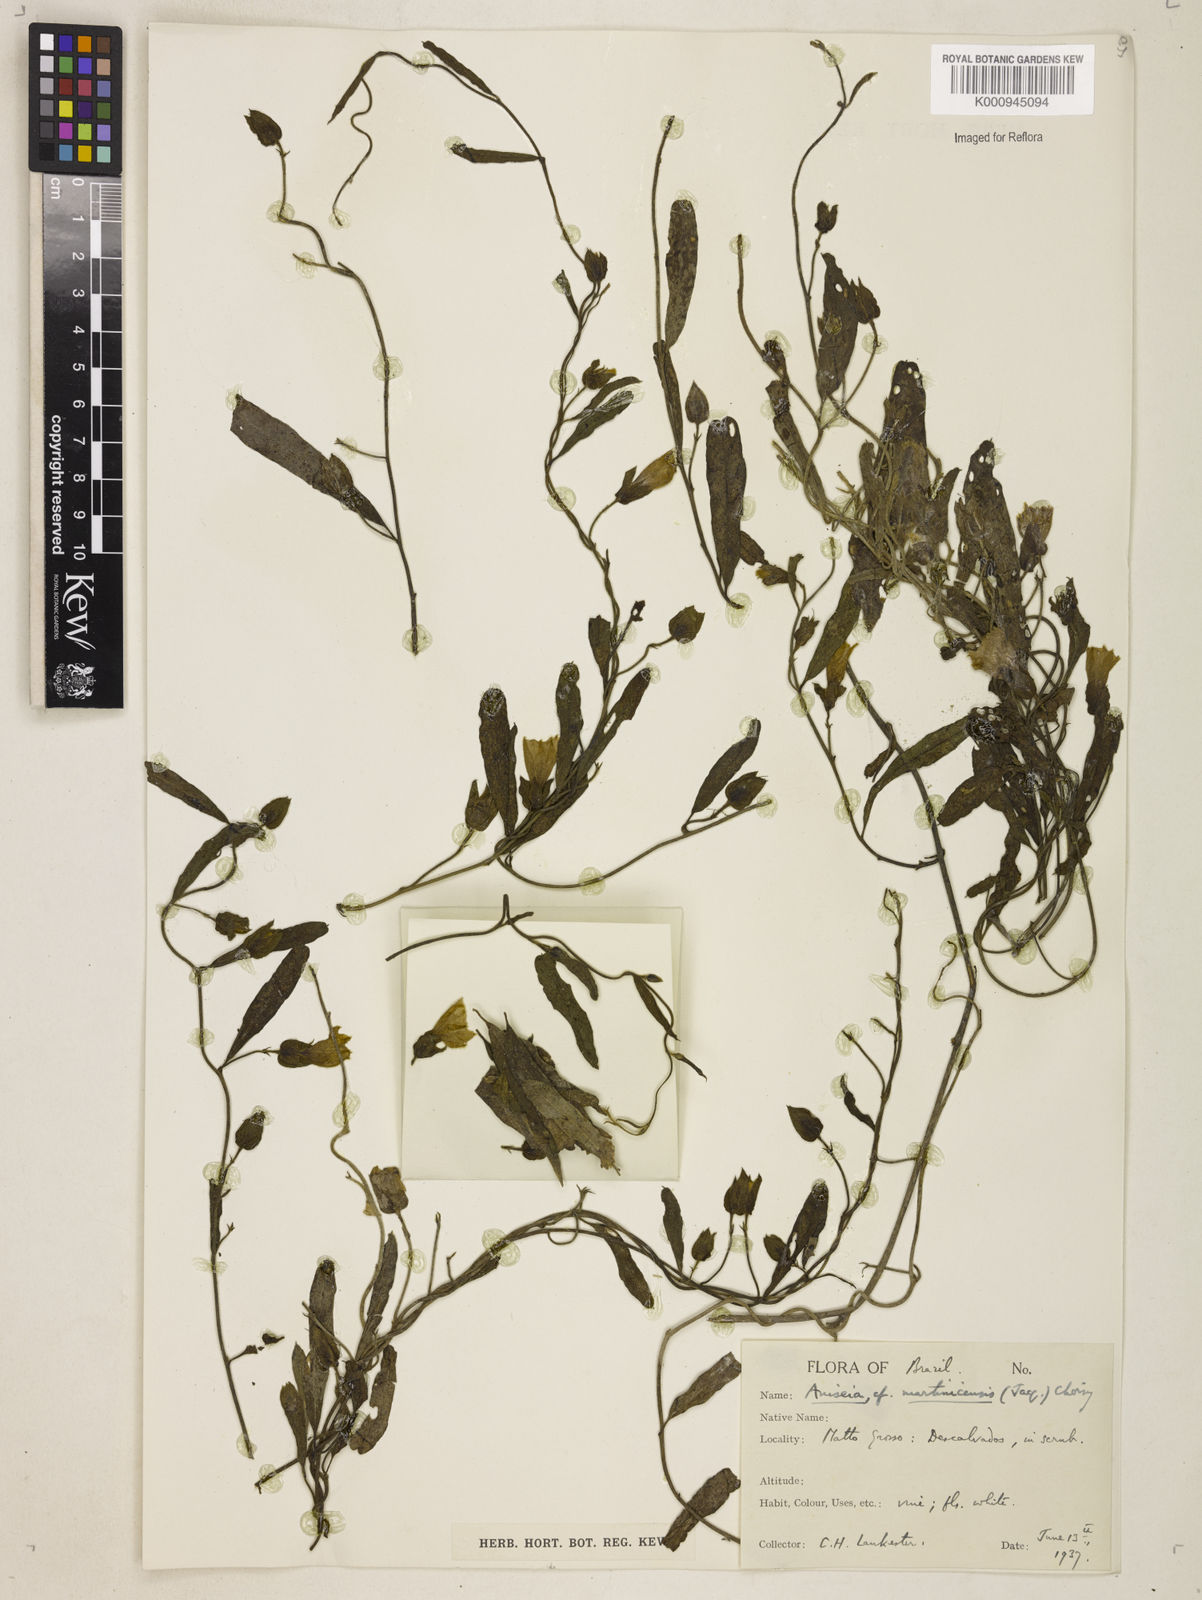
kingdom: Plantae
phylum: Tracheophyta
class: Magnoliopsida
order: Solanales
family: Convolvulaceae
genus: Aniseia
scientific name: Aniseia martinicensis
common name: Kulayadambu
